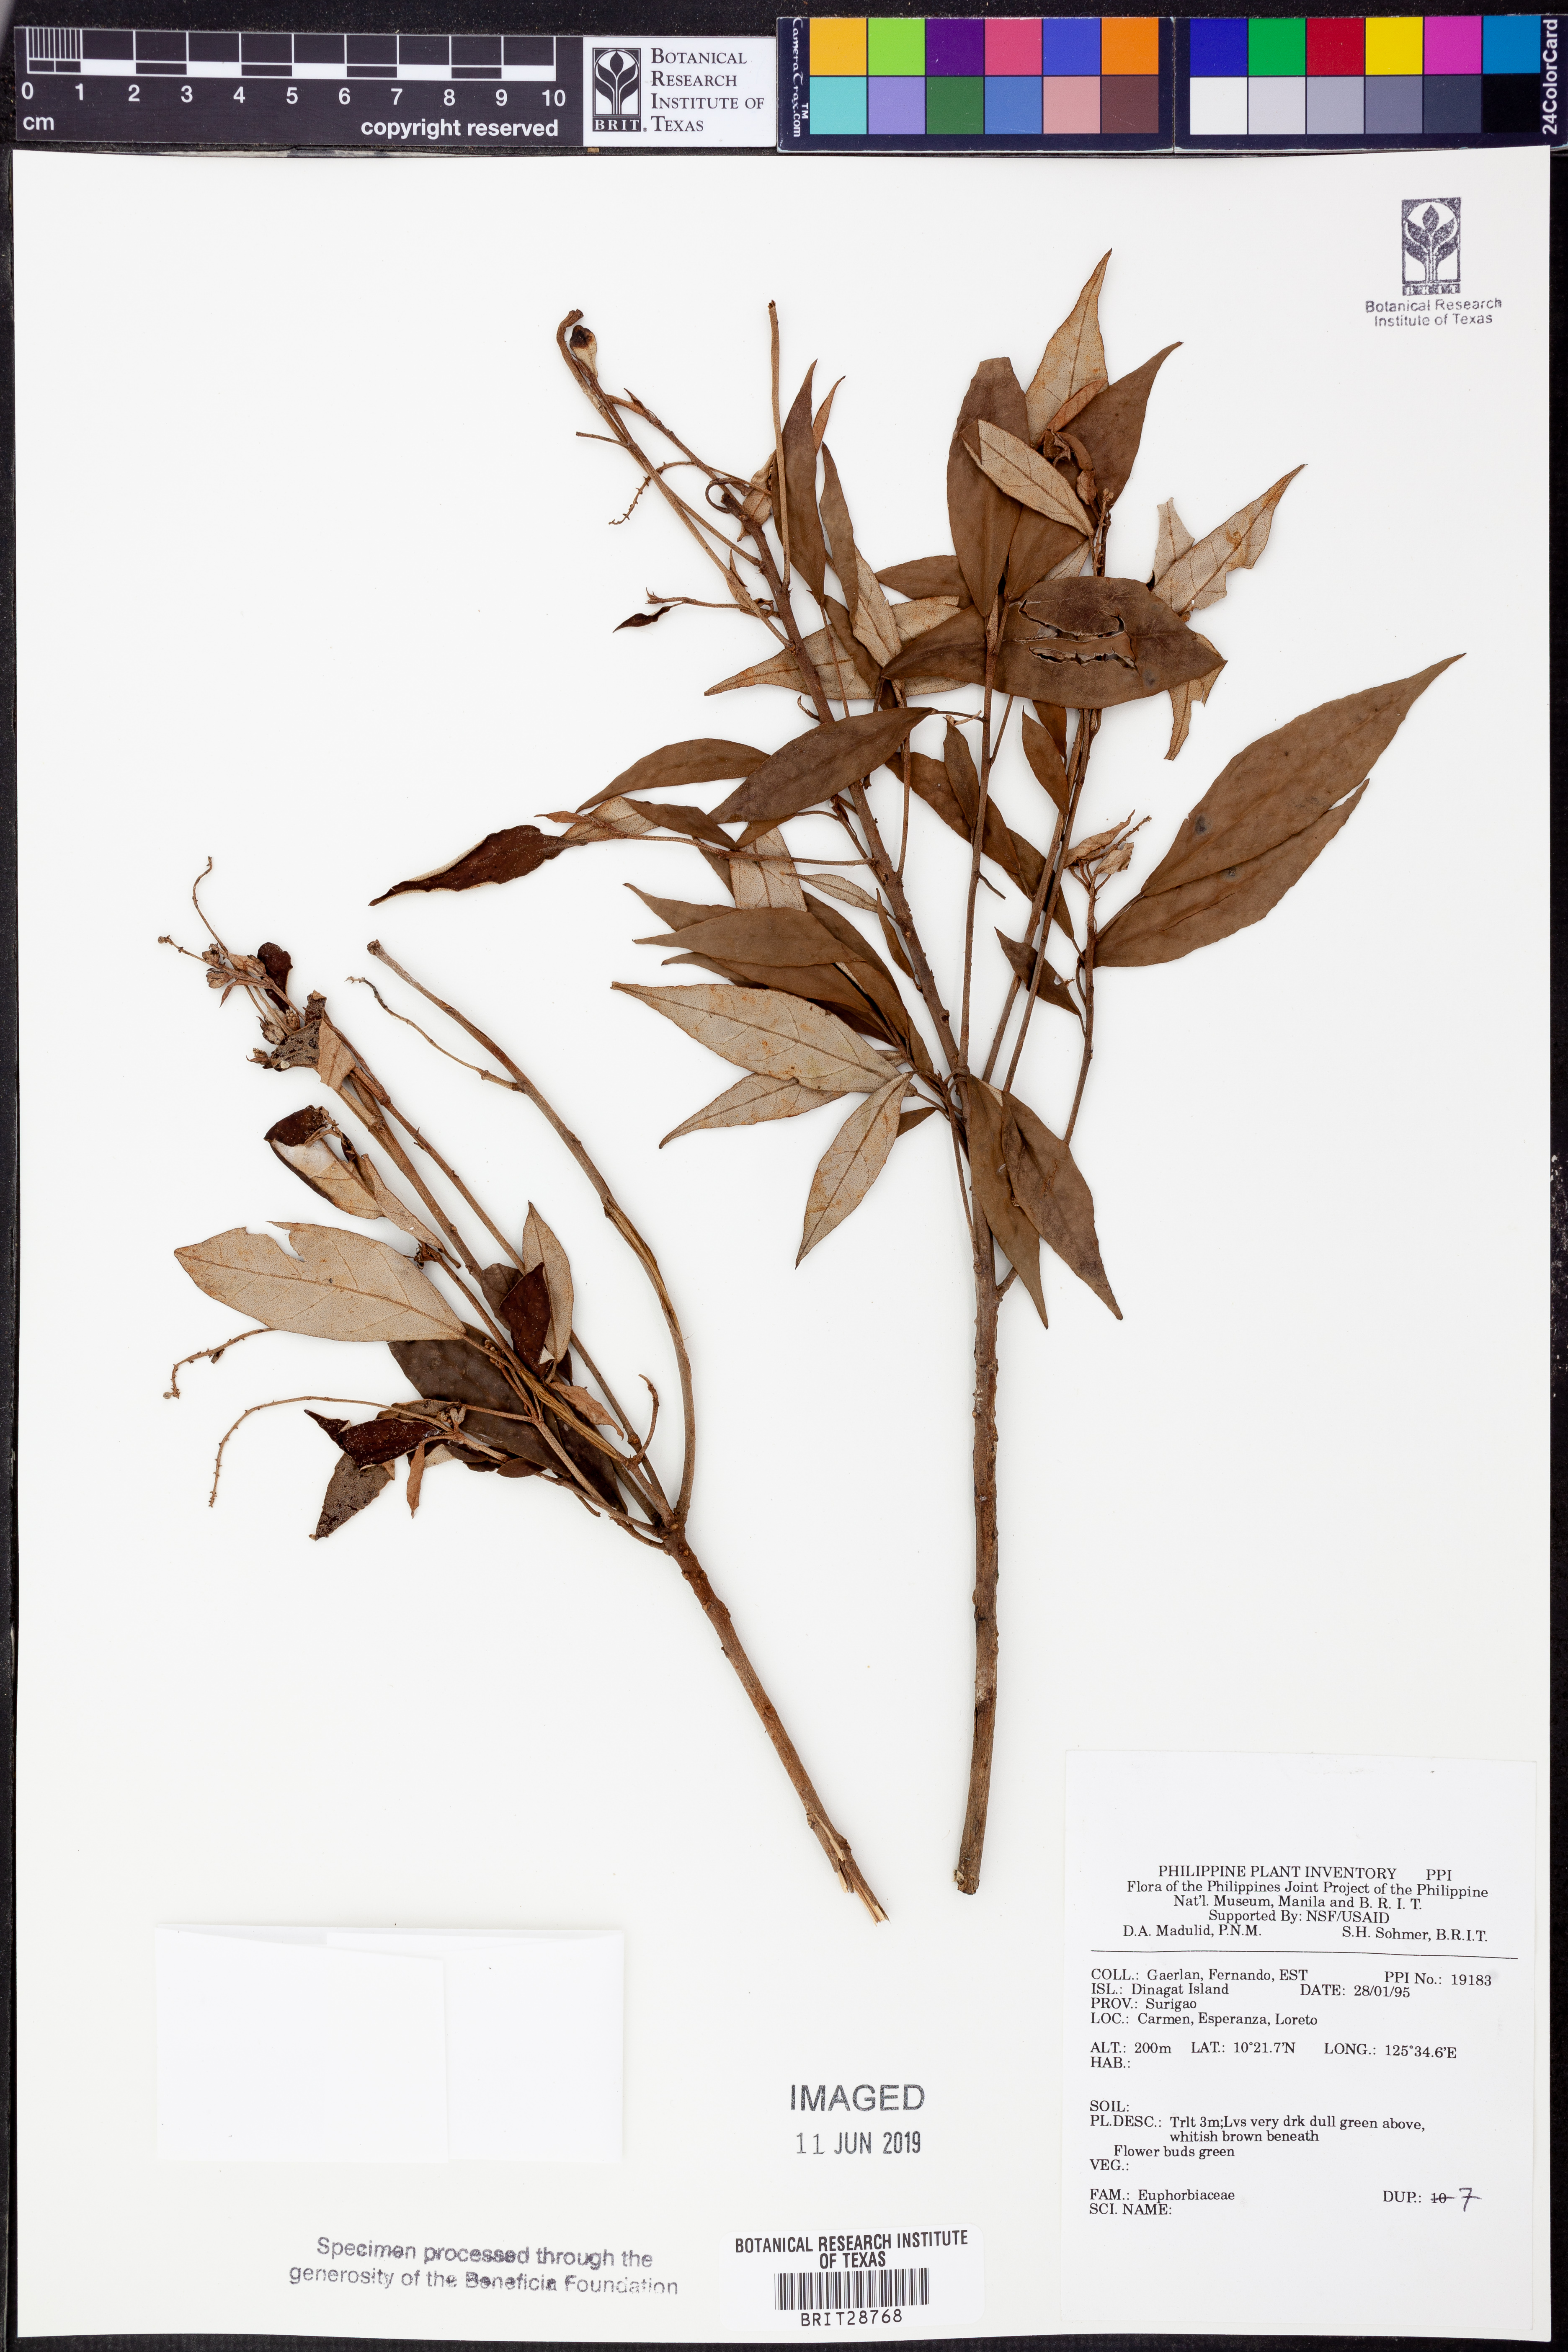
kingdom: Plantae
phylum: Tracheophyta
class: Magnoliopsida
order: Malpighiales
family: Euphorbiaceae
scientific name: Euphorbiaceae
